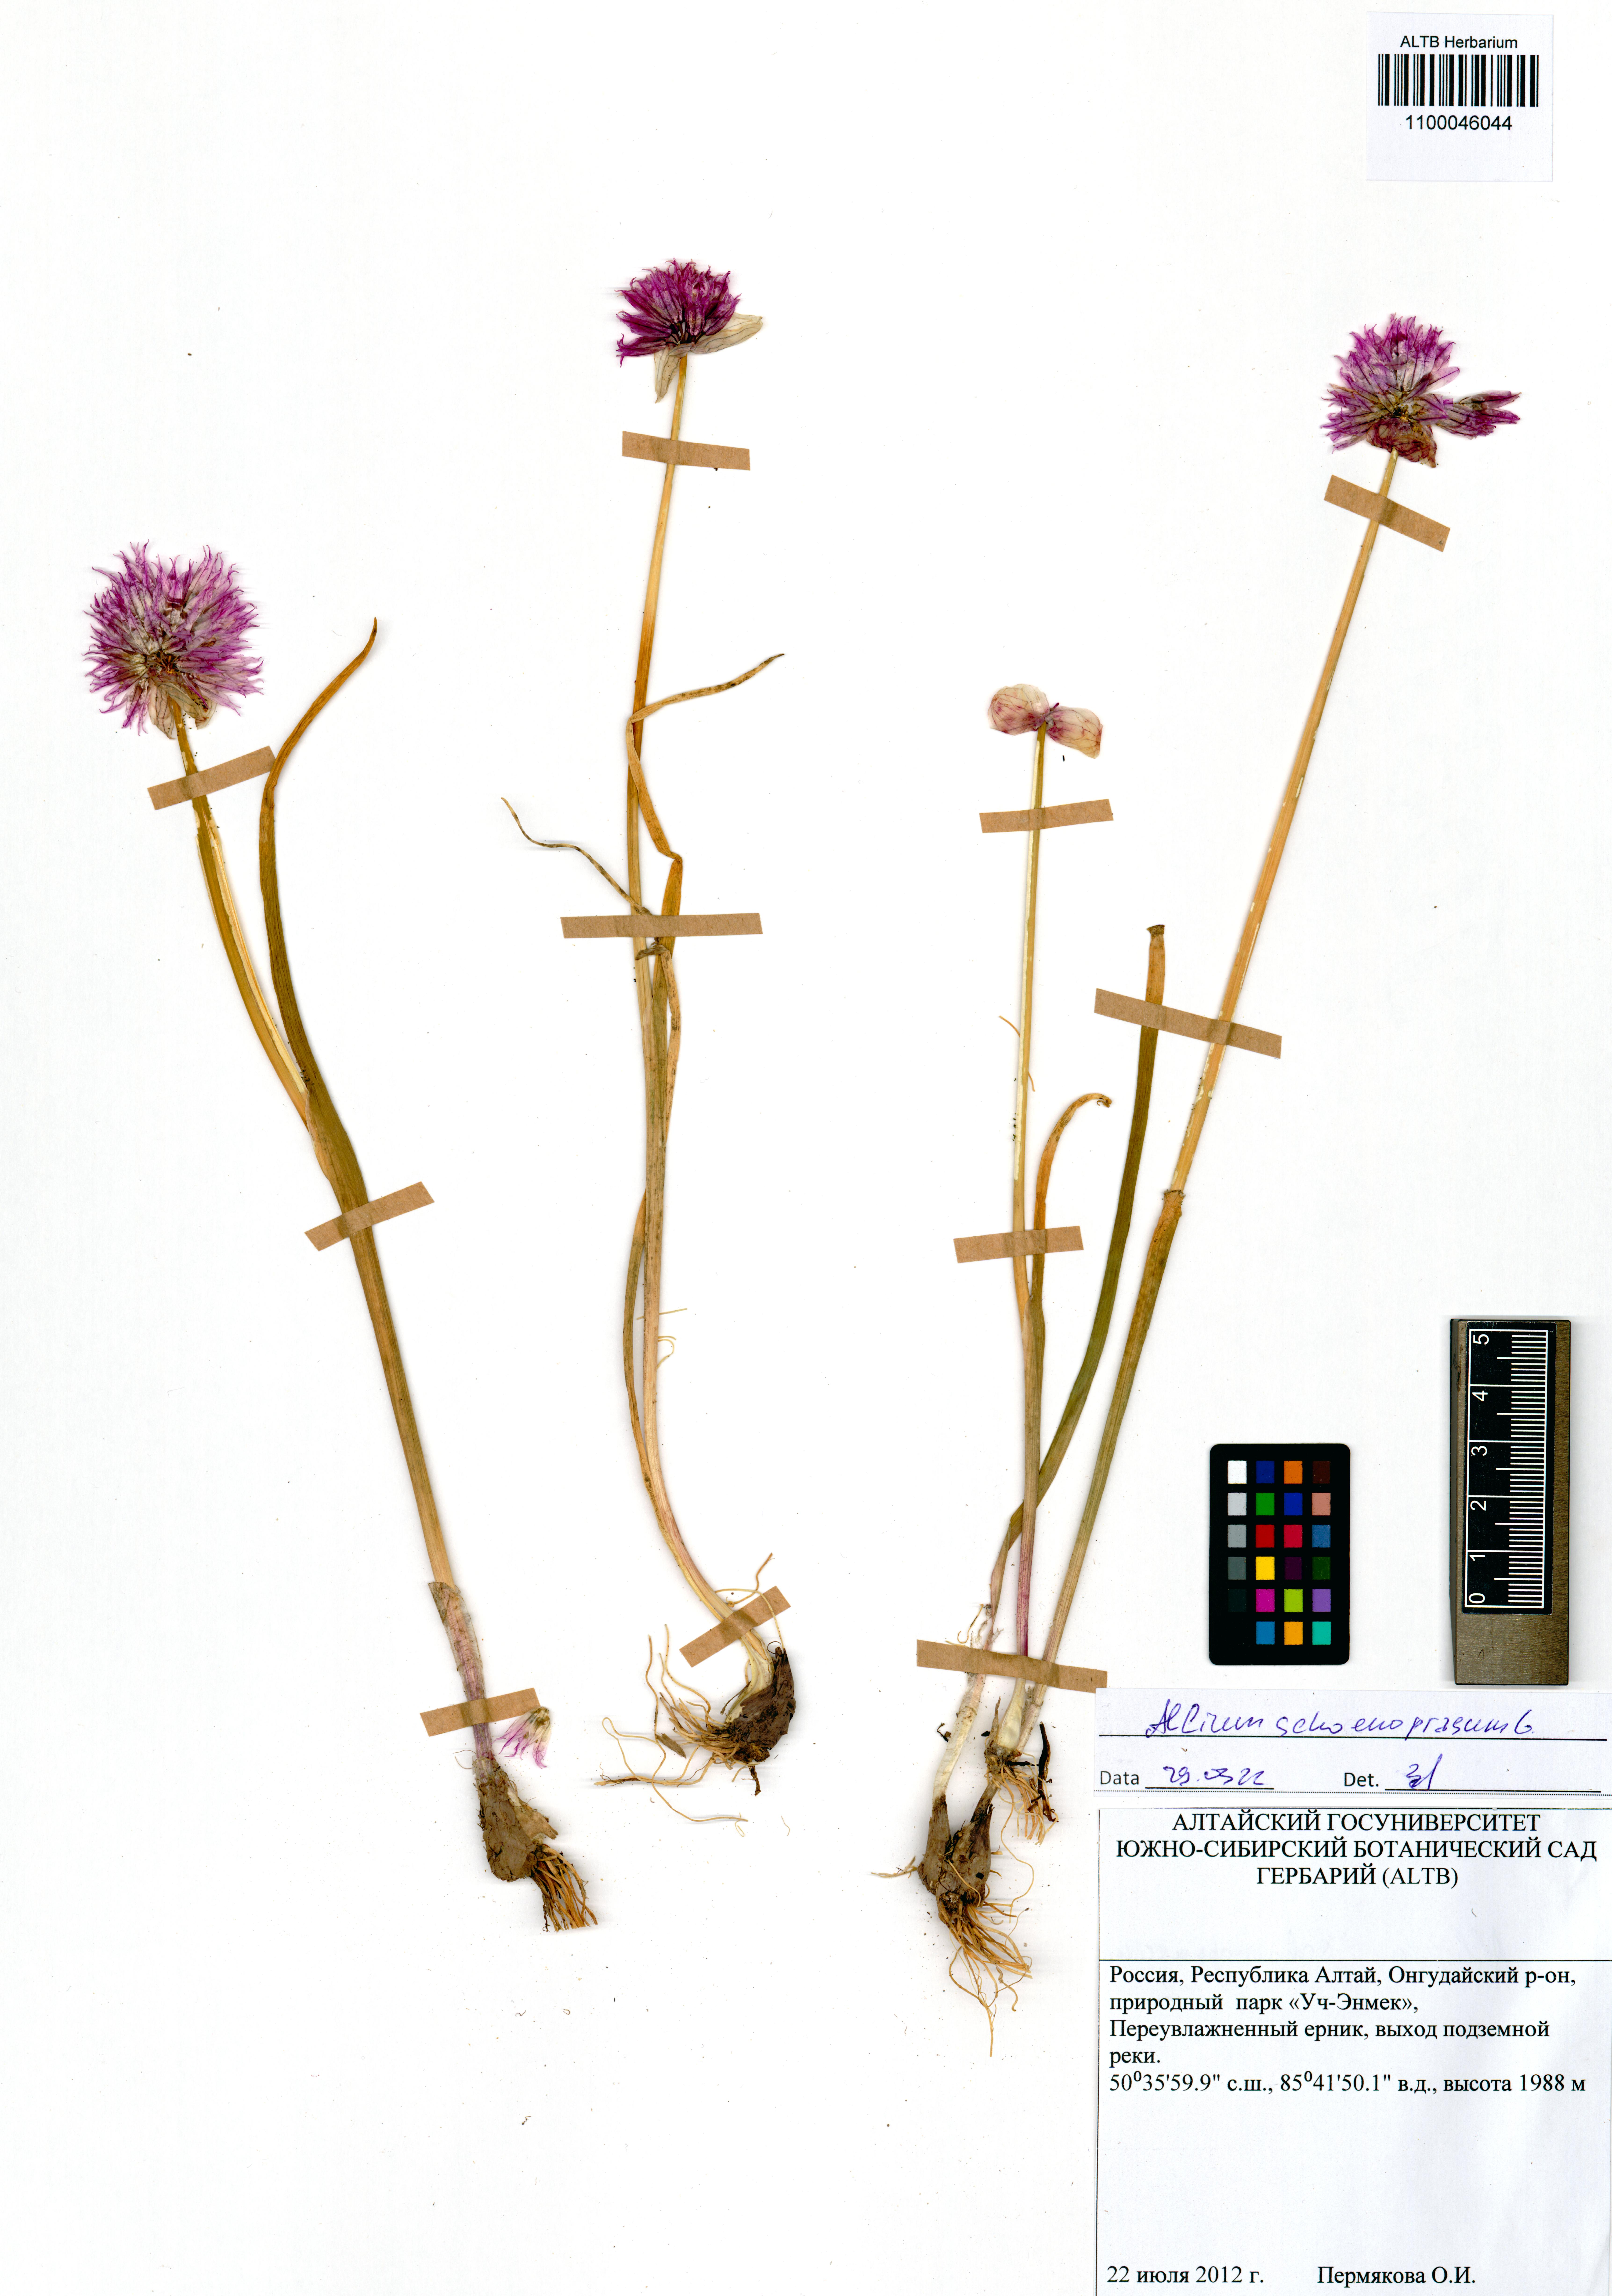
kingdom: Plantae
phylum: Tracheophyta
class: Liliopsida
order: Asparagales
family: Amaryllidaceae
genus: Allium
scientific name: Allium schoenoprasum
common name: Chives
